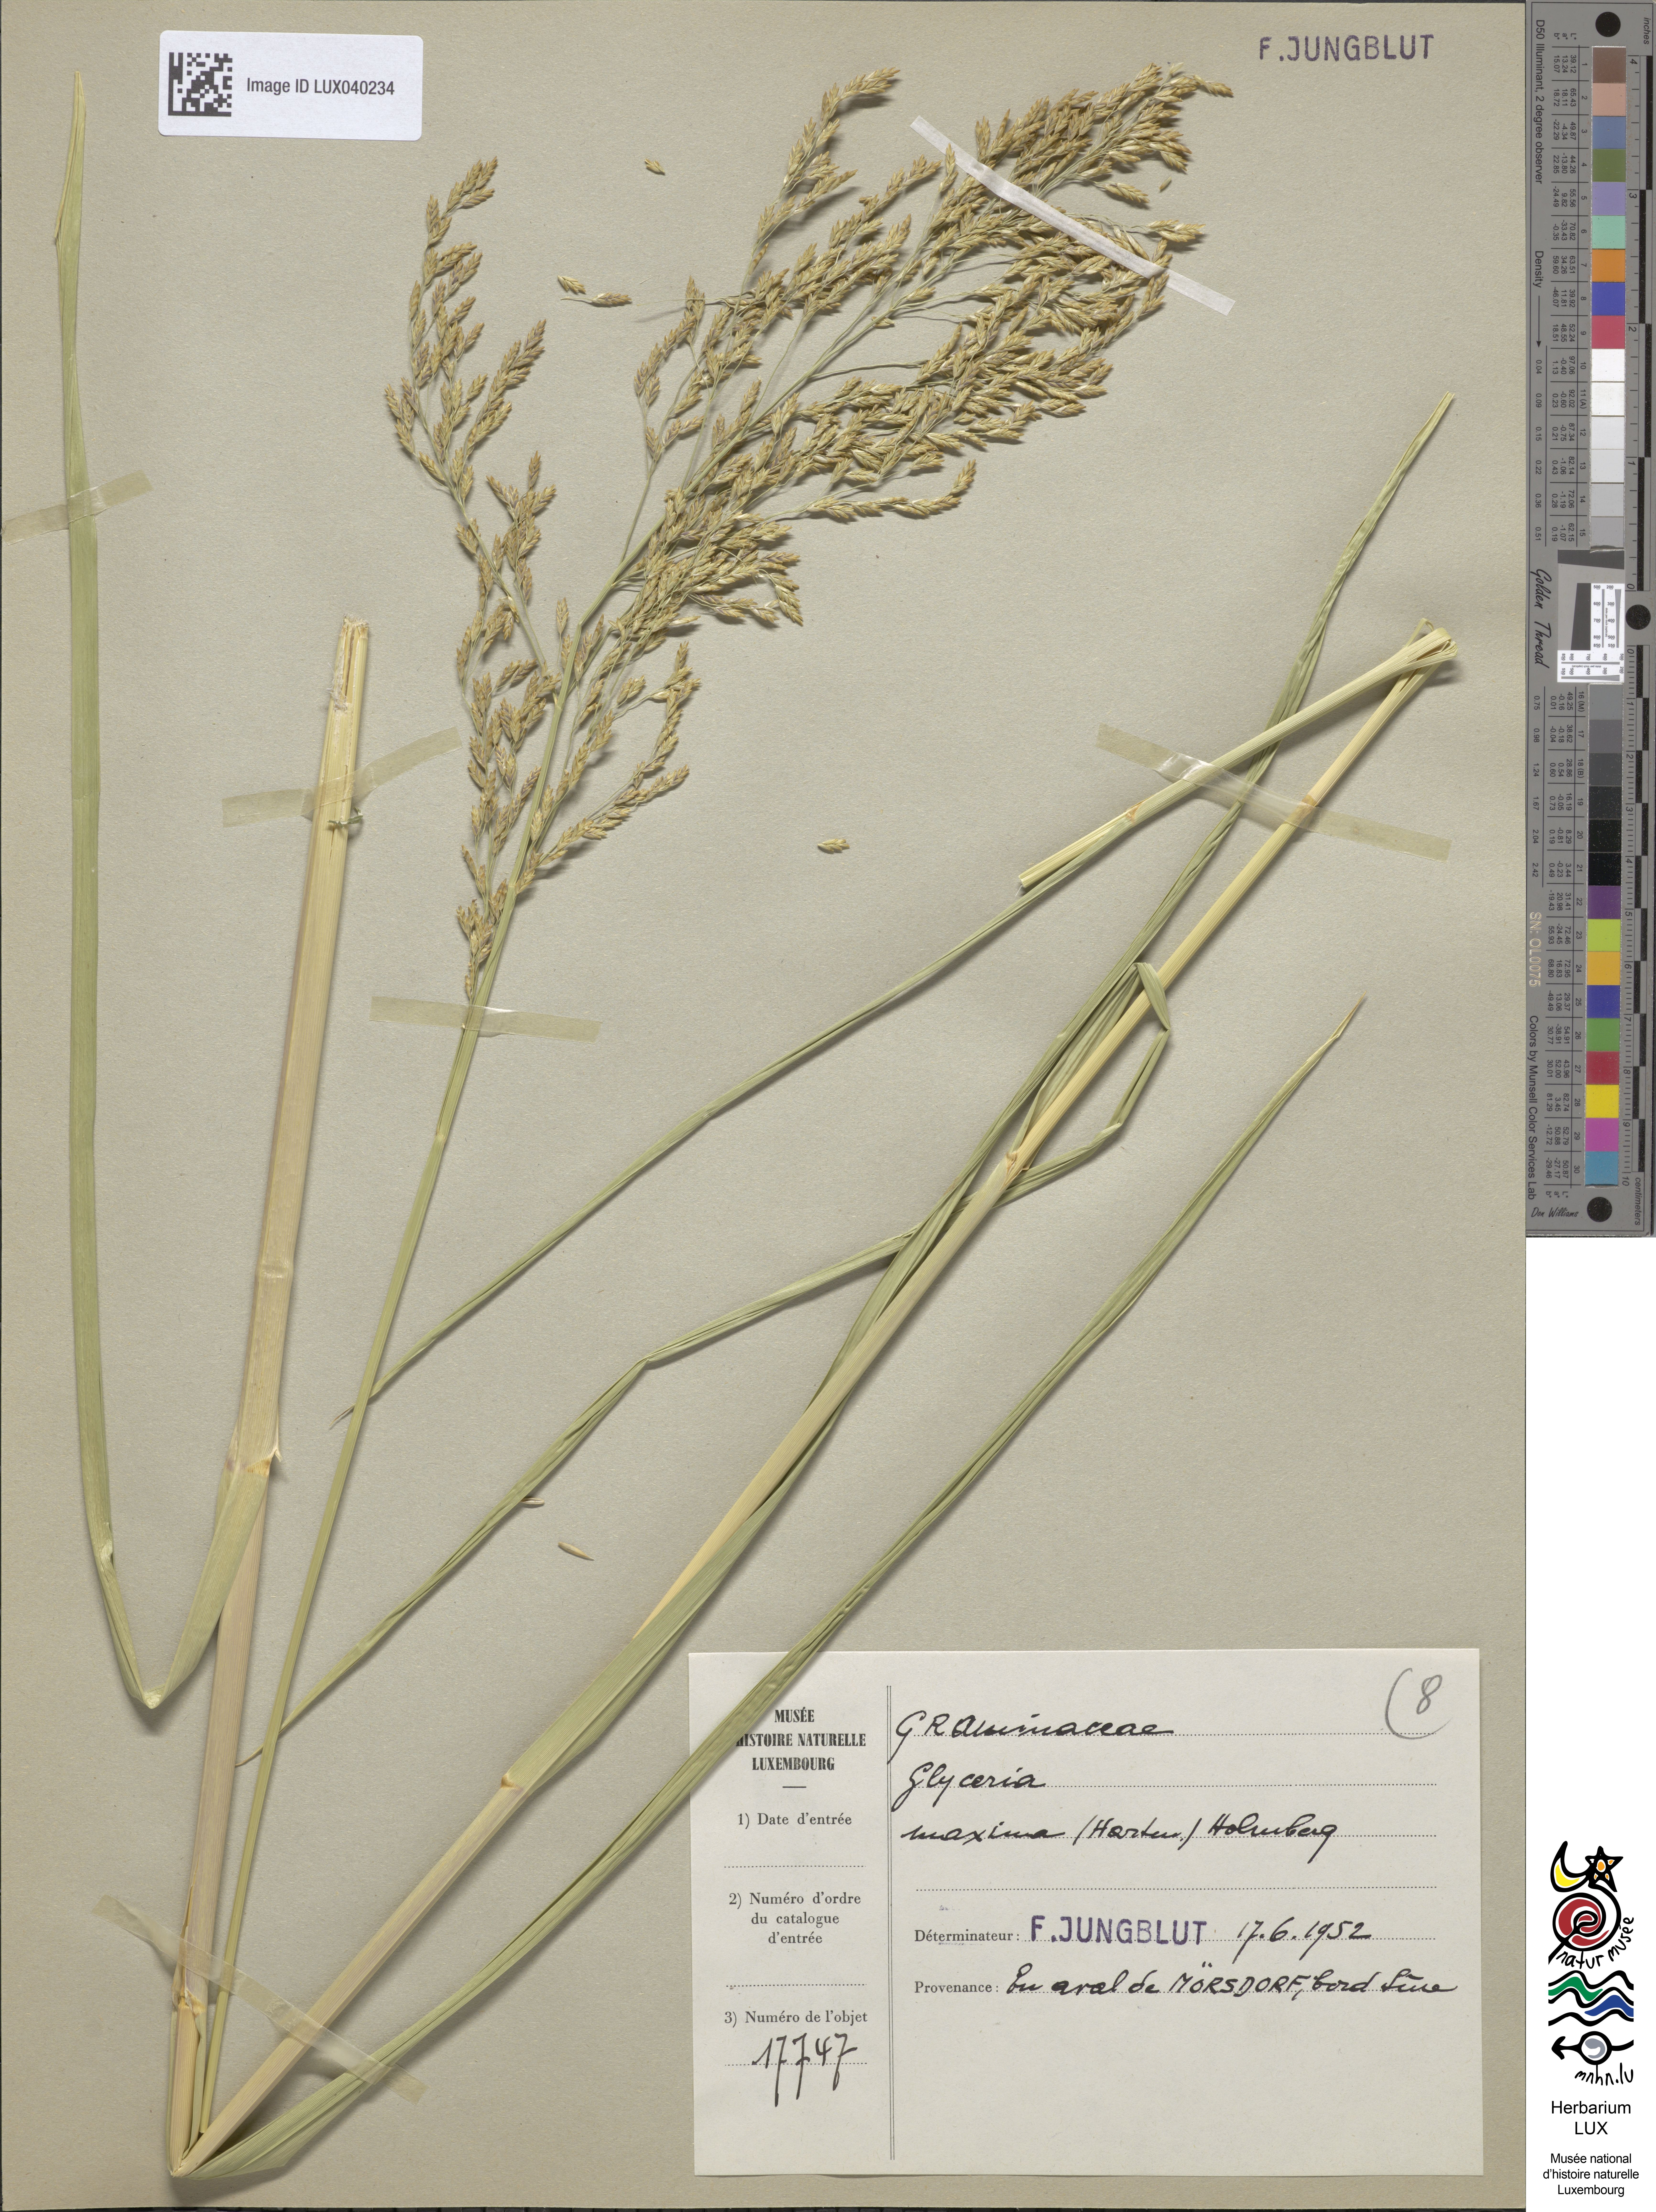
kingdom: Plantae
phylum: Tracheophyta
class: Liliopsida
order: Poales
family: Poaceae
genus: Glyceria
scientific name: Glyceria maxima
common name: Reed mannagrass
